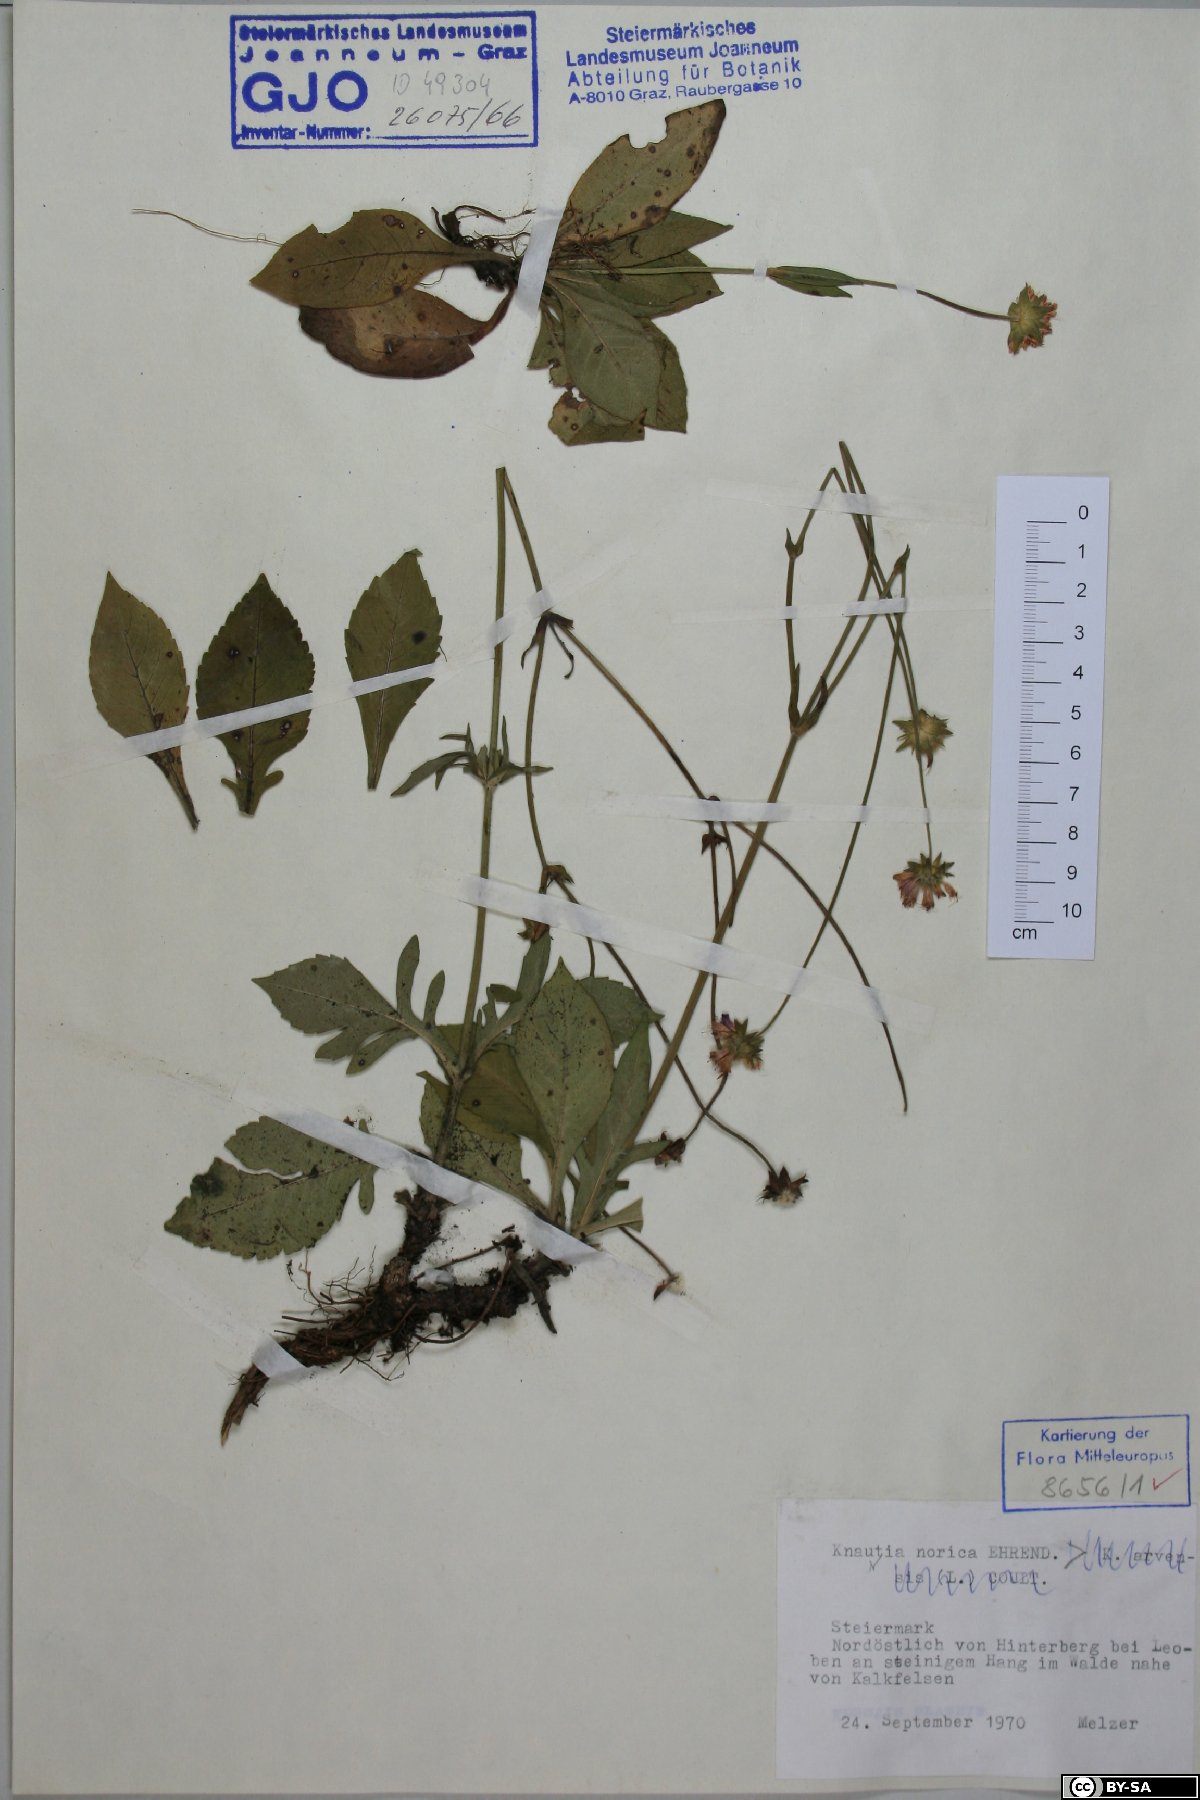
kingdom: Plantae
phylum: Tracheophyta
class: Magnoliopsida
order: Dipsacales
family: Caprifoliaceae
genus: Knautia
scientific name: Knautia norica
